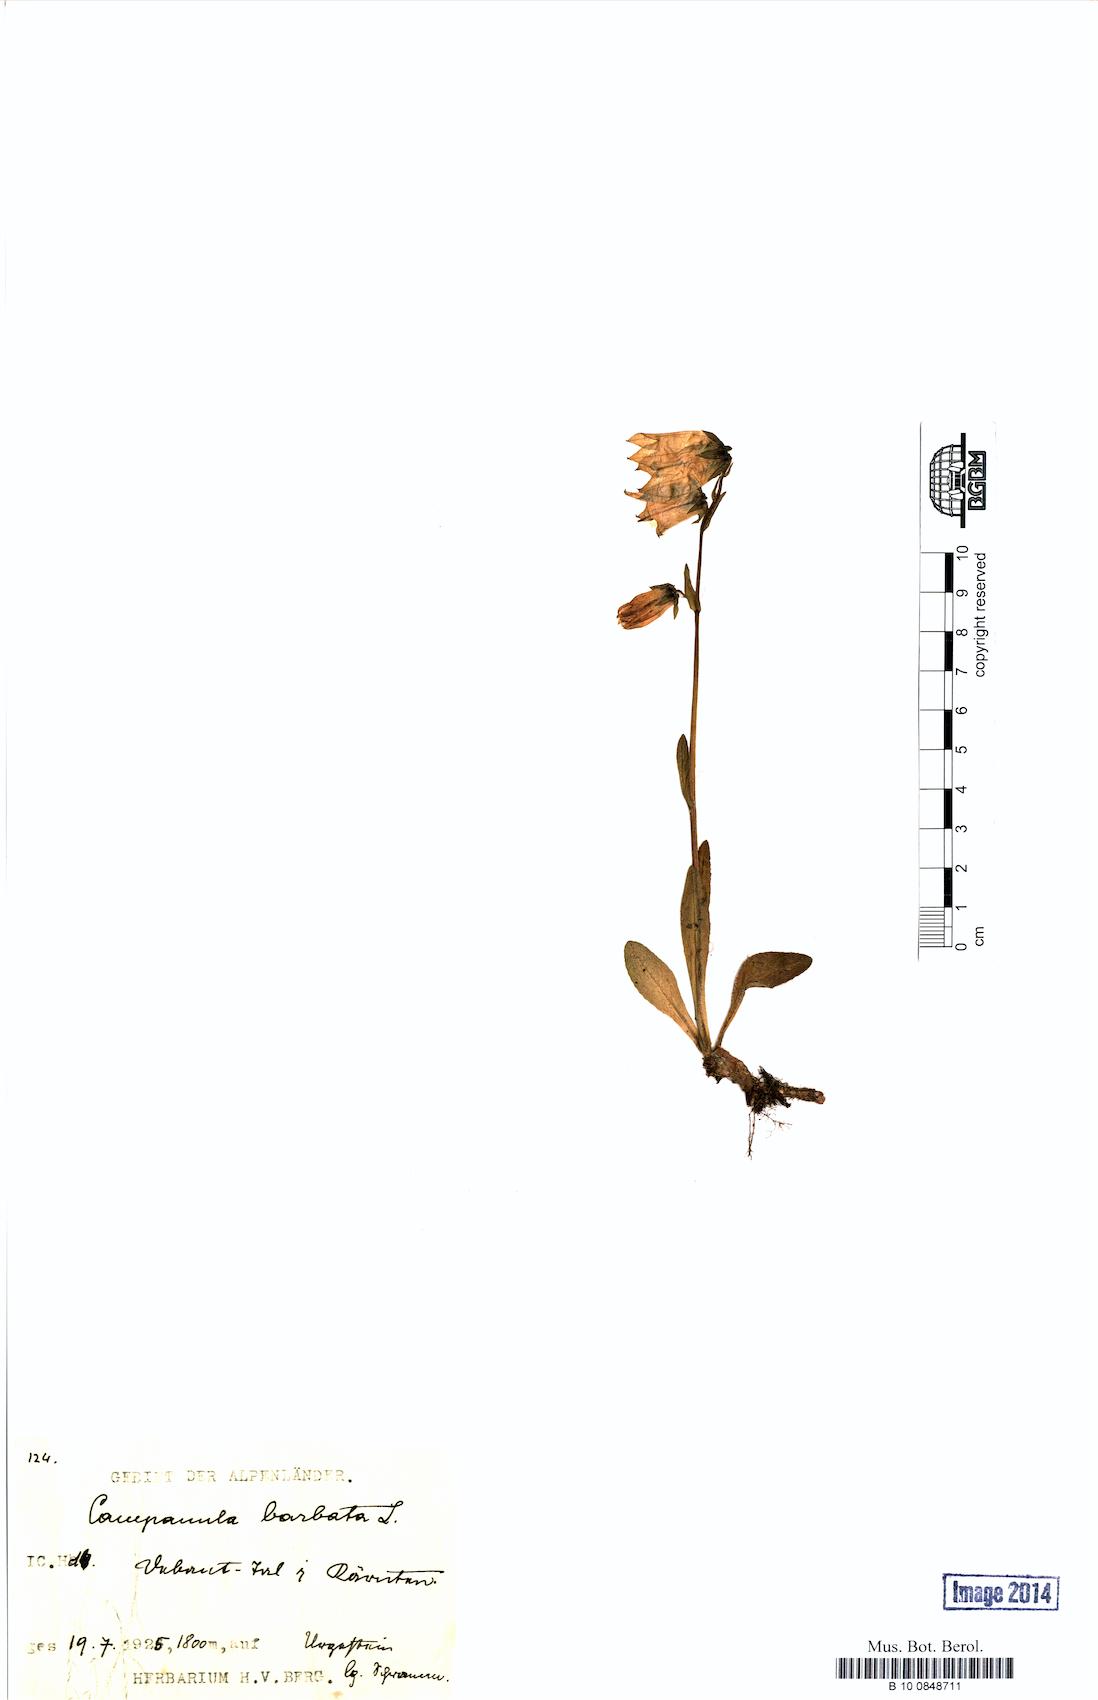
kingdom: Plantae
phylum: Tracheophyta
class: Magnoliopsida
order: Asterales
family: Campanulaceae
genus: Campanula
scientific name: Campanula barbata
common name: Bearded bellflower
